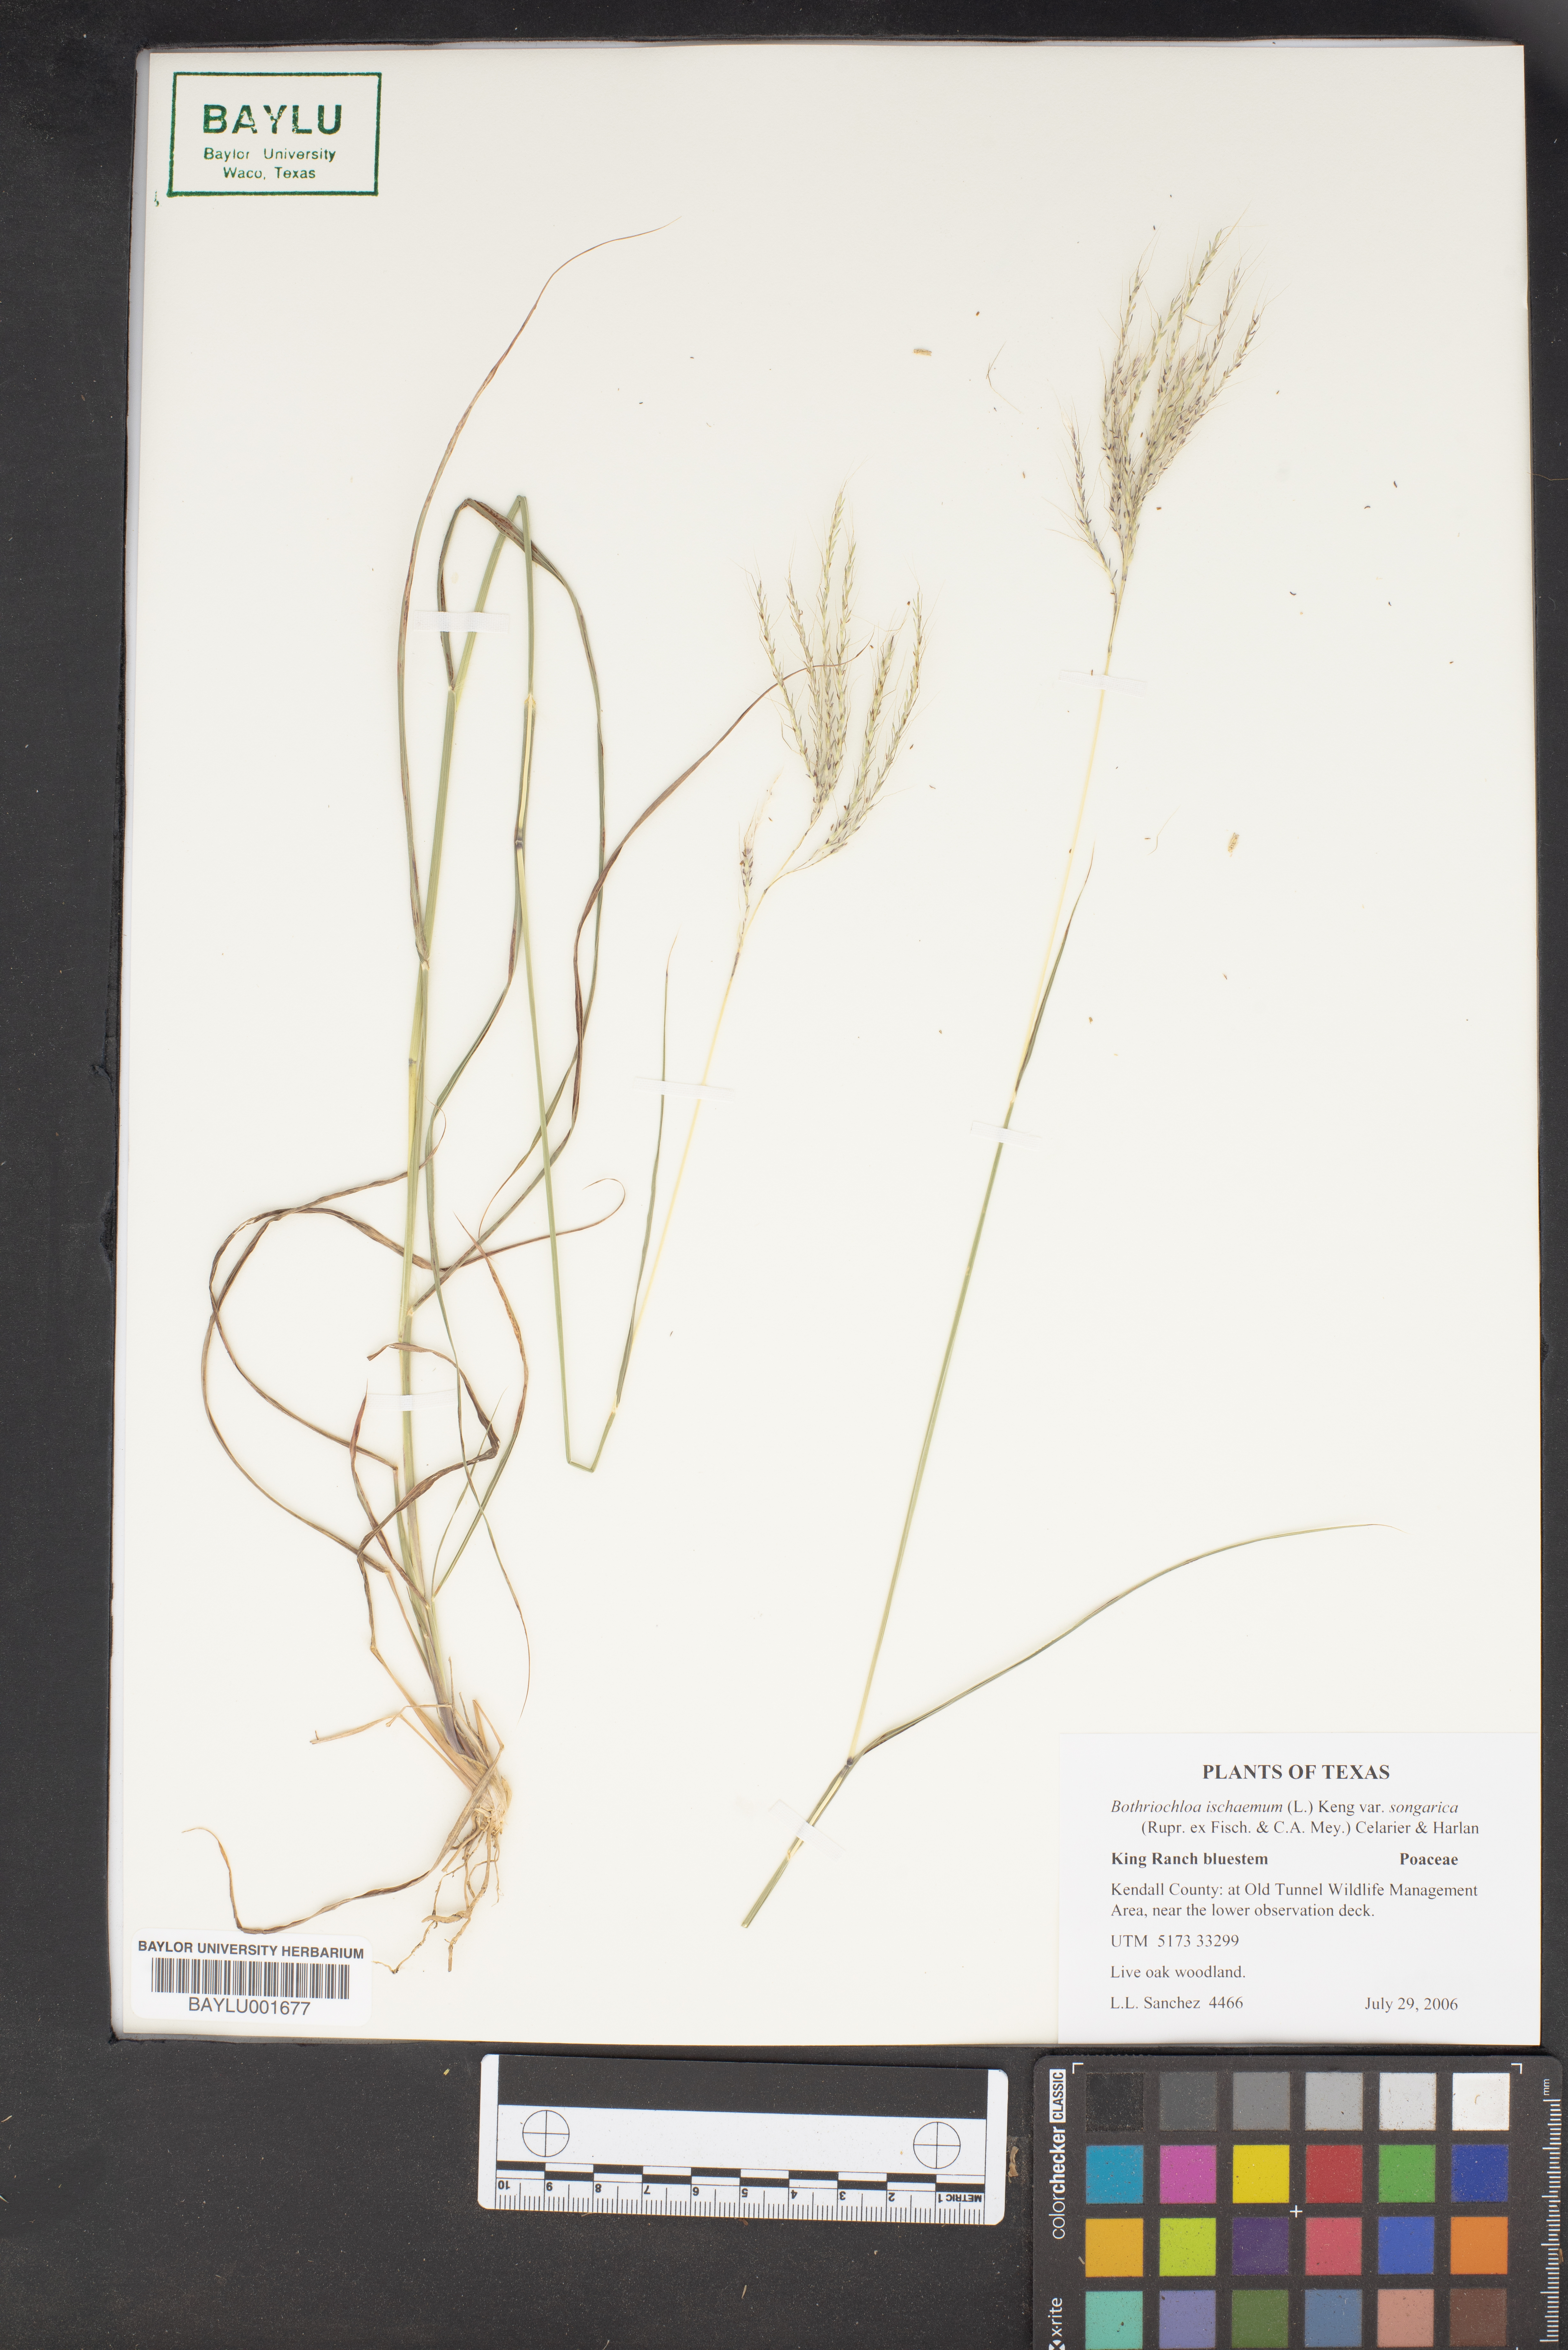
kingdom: Plantae
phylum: Tracheophyta
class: Liliopsida
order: Poales
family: Poaceae
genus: Bothriochloa
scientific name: Bothriochloa ischaemum
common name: Yellow bluestem
